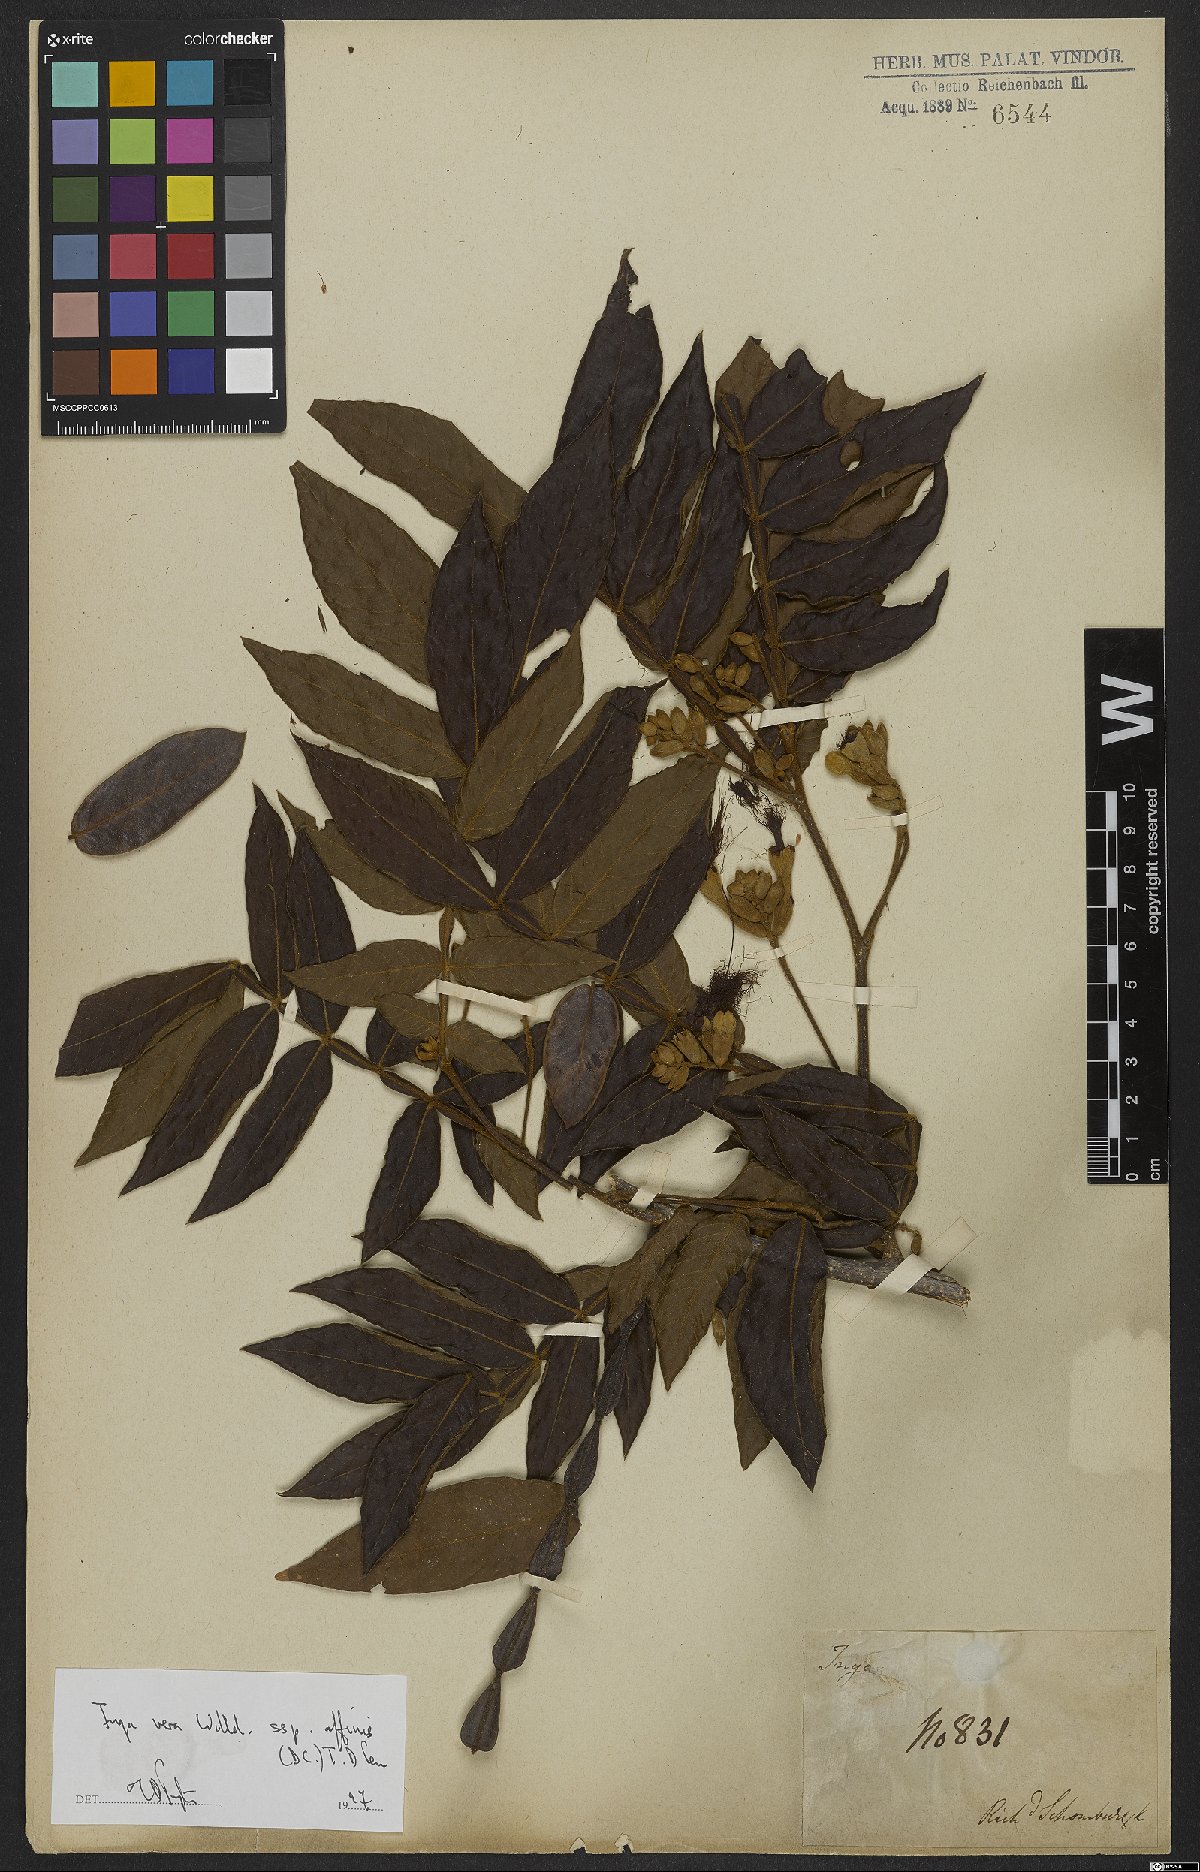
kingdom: Plantae
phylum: Tracheophyta
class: Magnoliopsida
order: Fabales
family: Fabaceae
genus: Inga
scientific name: Inga vera
